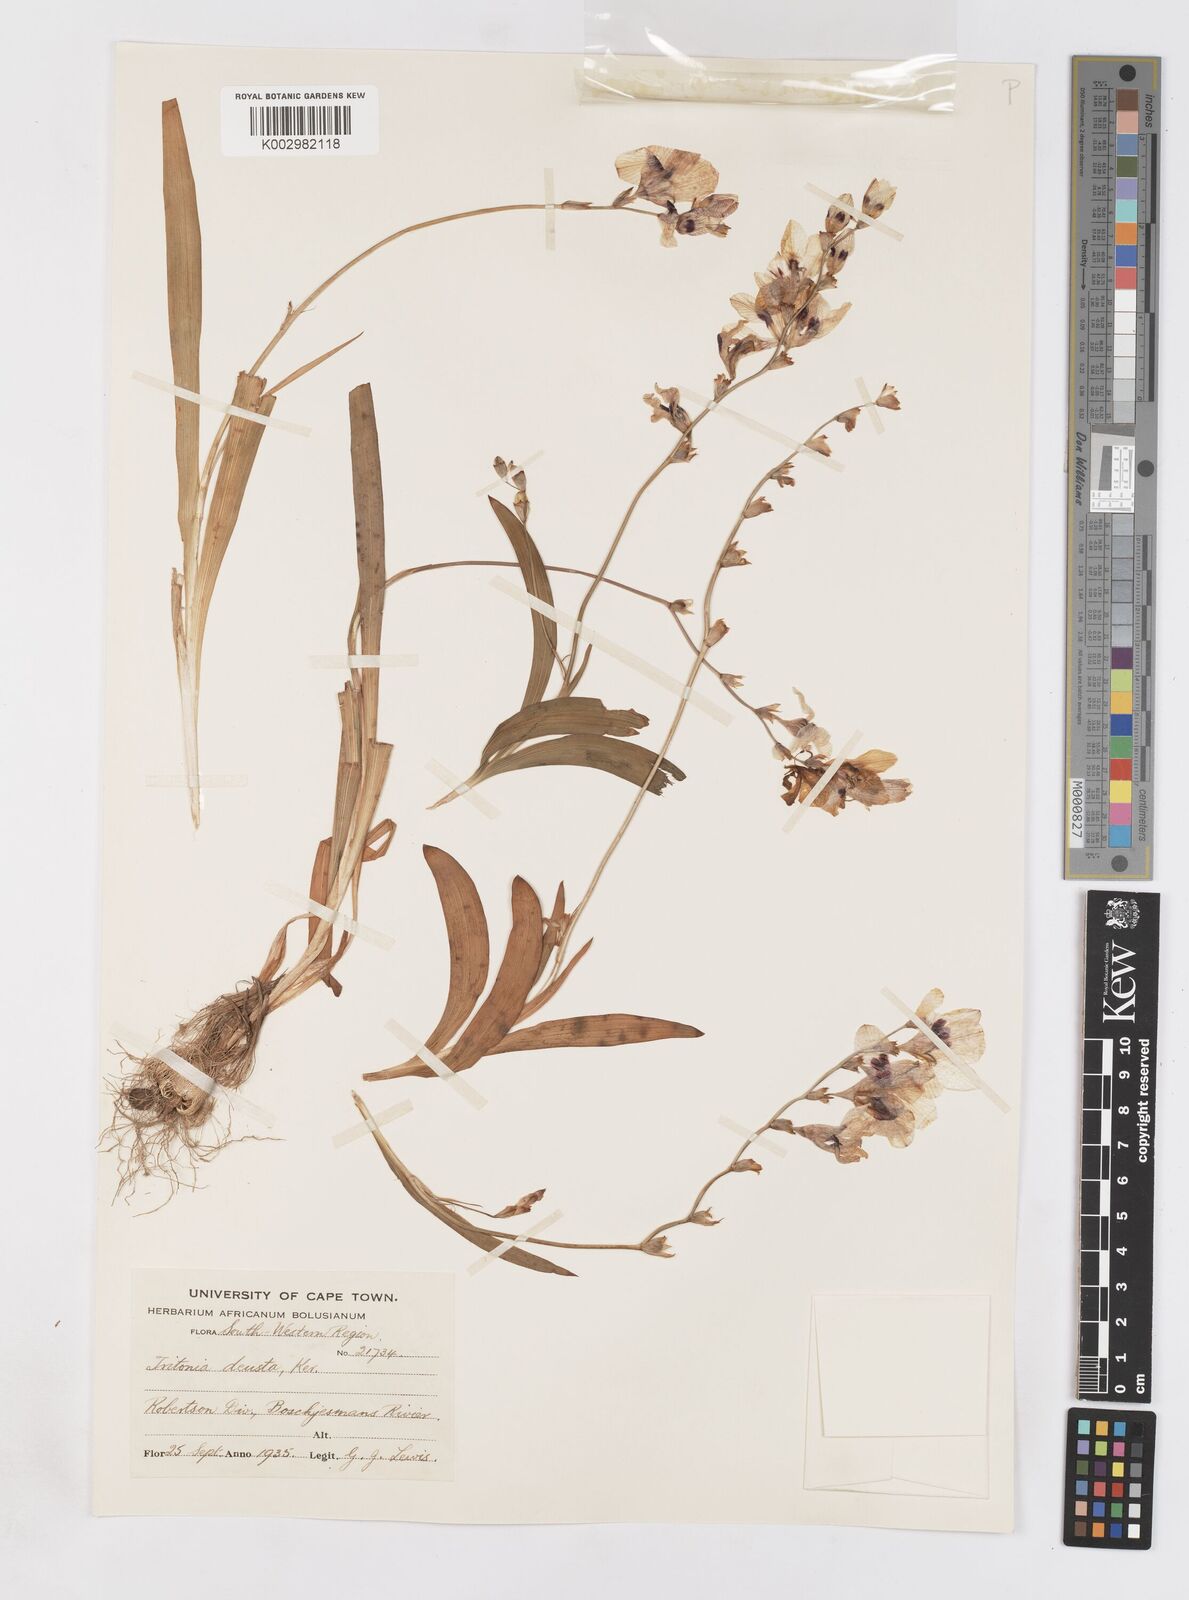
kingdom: Plantae
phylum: Tracheophyta
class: Liliopsida
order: Asparagales
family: Iridaceae
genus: Tritonia
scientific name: Tritonia deusta
